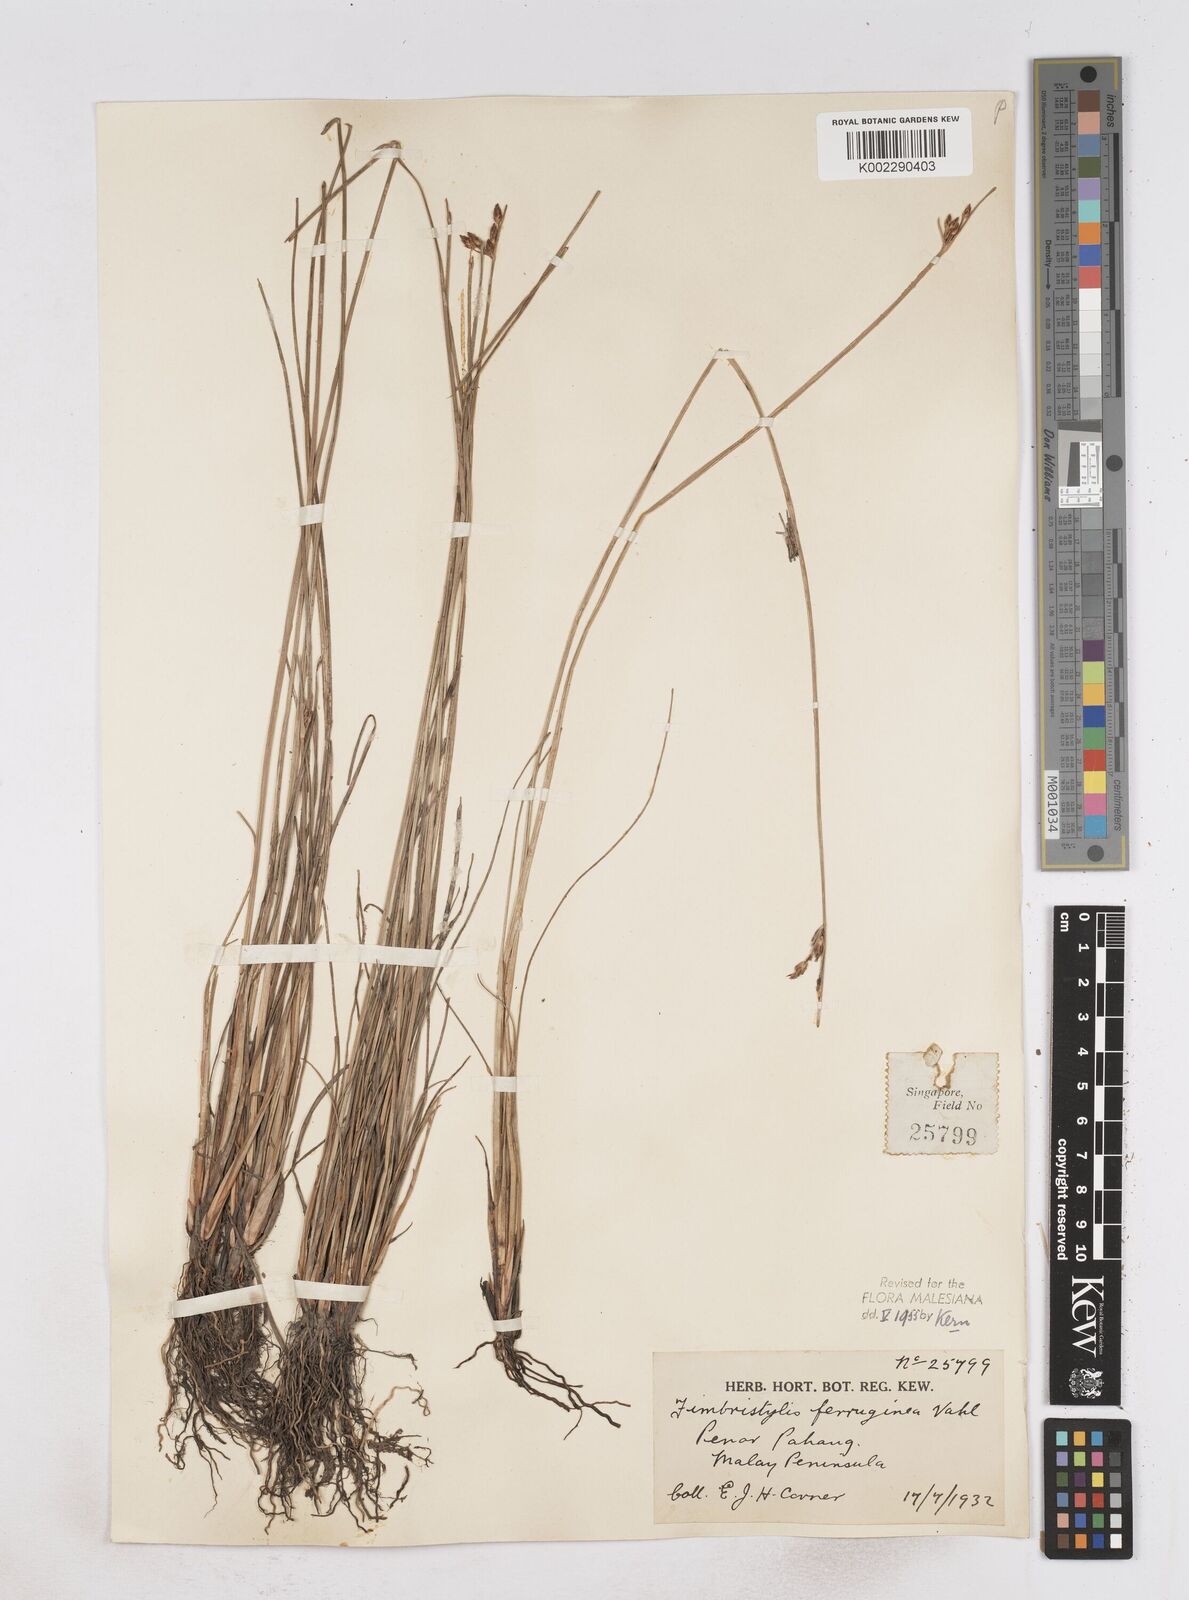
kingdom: Plantae
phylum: Tracheophyta
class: Liliopsida
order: Poales
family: Cyperaceae
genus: Fimbristylis
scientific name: Fimbristylis ferruginea
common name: West indian fimbry
